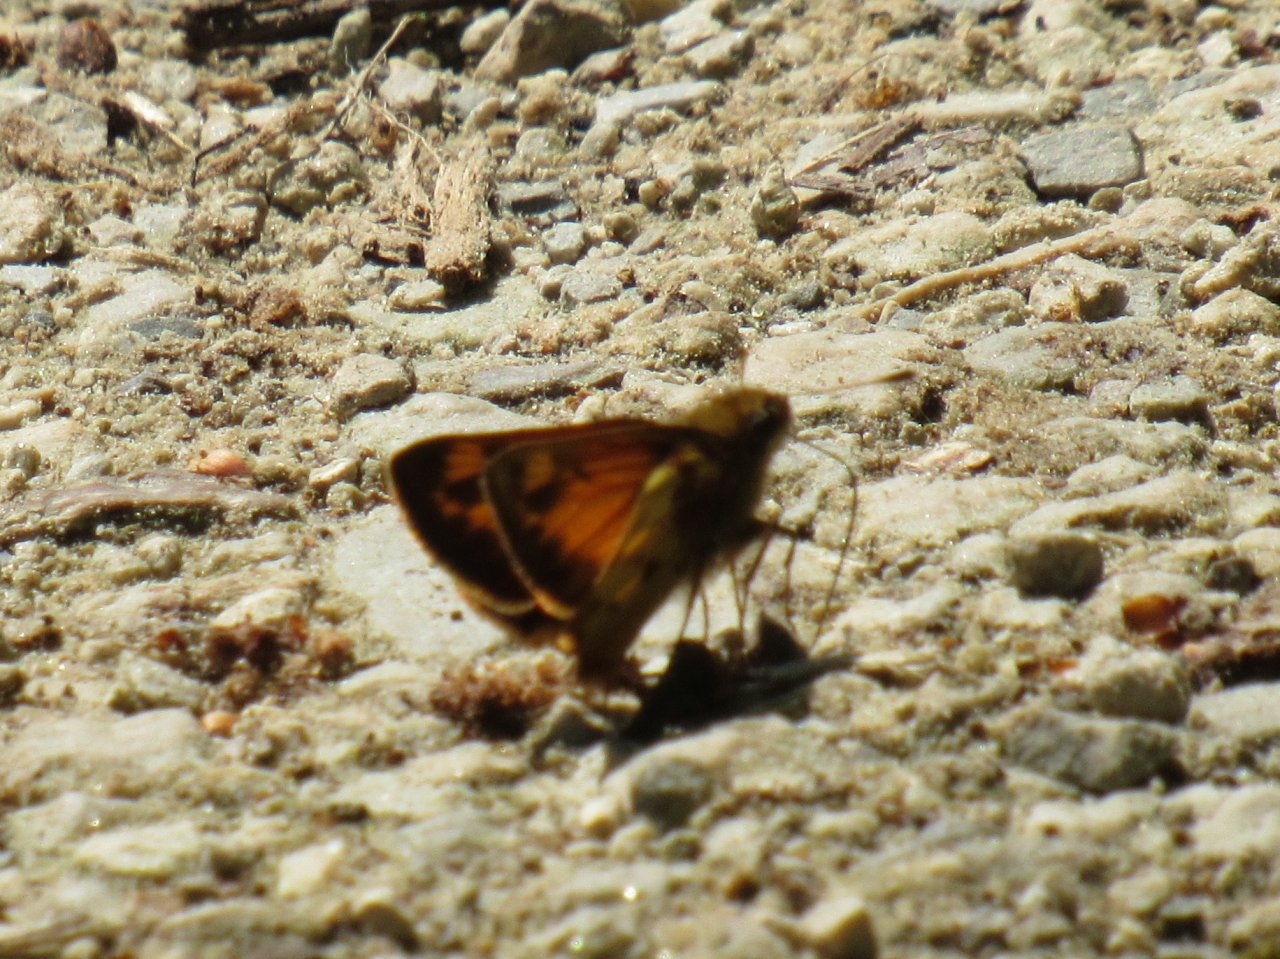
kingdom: Animalia
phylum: Arthropoda
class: Insecta
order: Lepidoptera
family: Hesperiidae
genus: Lon
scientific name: Lon zabulon
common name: Zabulon Skipper
